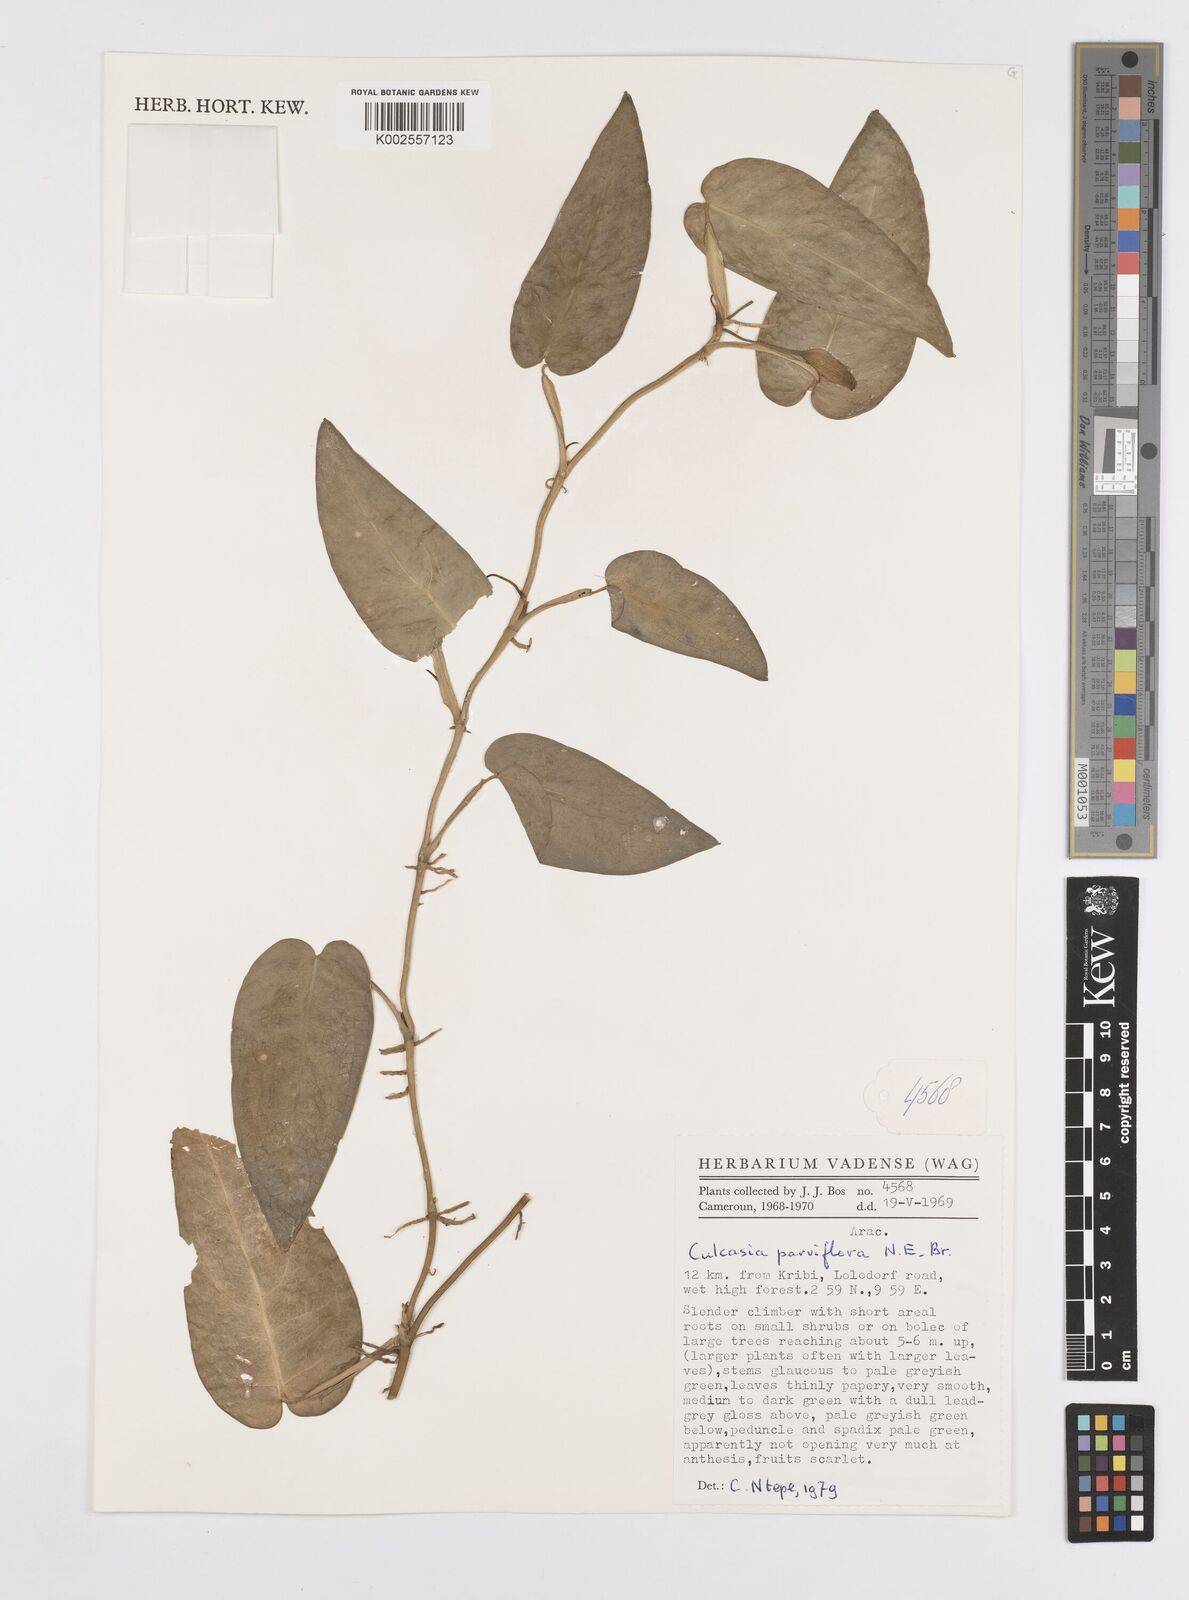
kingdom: Plantae
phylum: Tracheophyta
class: Liliopsida
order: Alismatales
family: Araceae
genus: Culcasia
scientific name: Culcasia parviflora
